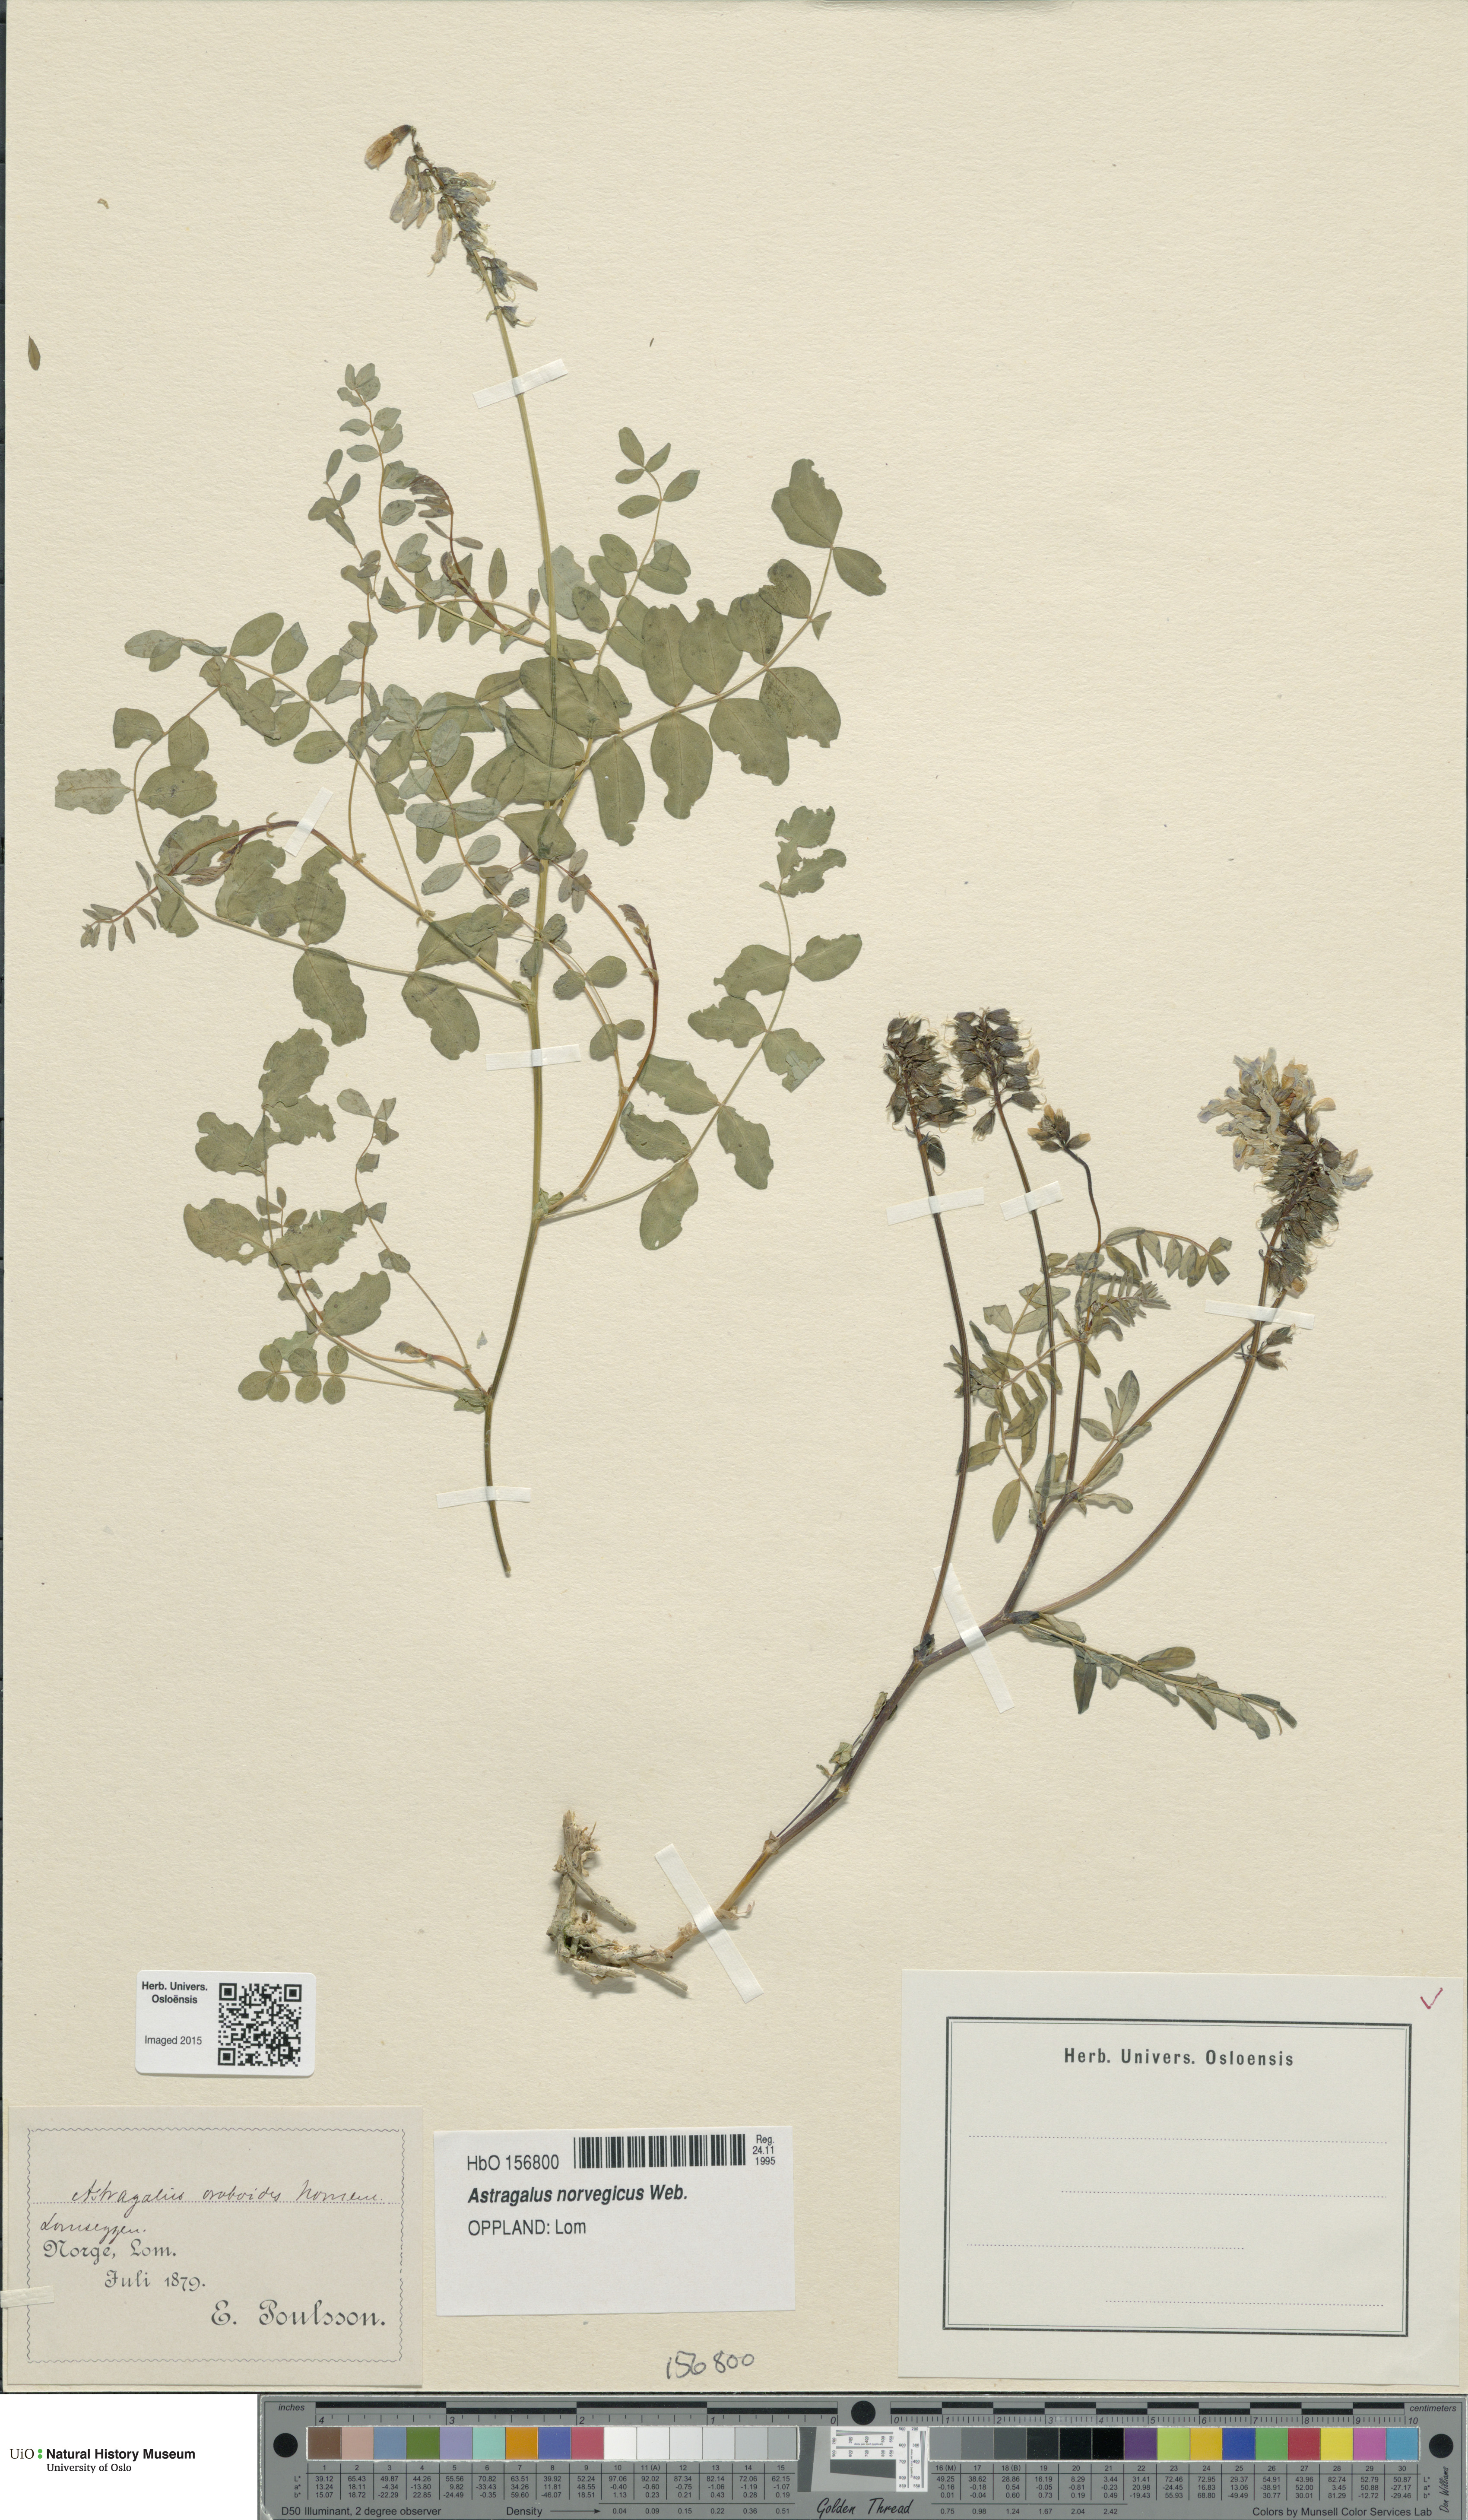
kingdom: Plantae
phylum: Tracheophyta
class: Magnoliopsida
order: Fabales
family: Fabaceae
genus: Astragalus
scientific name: Astragalus norvegicus
